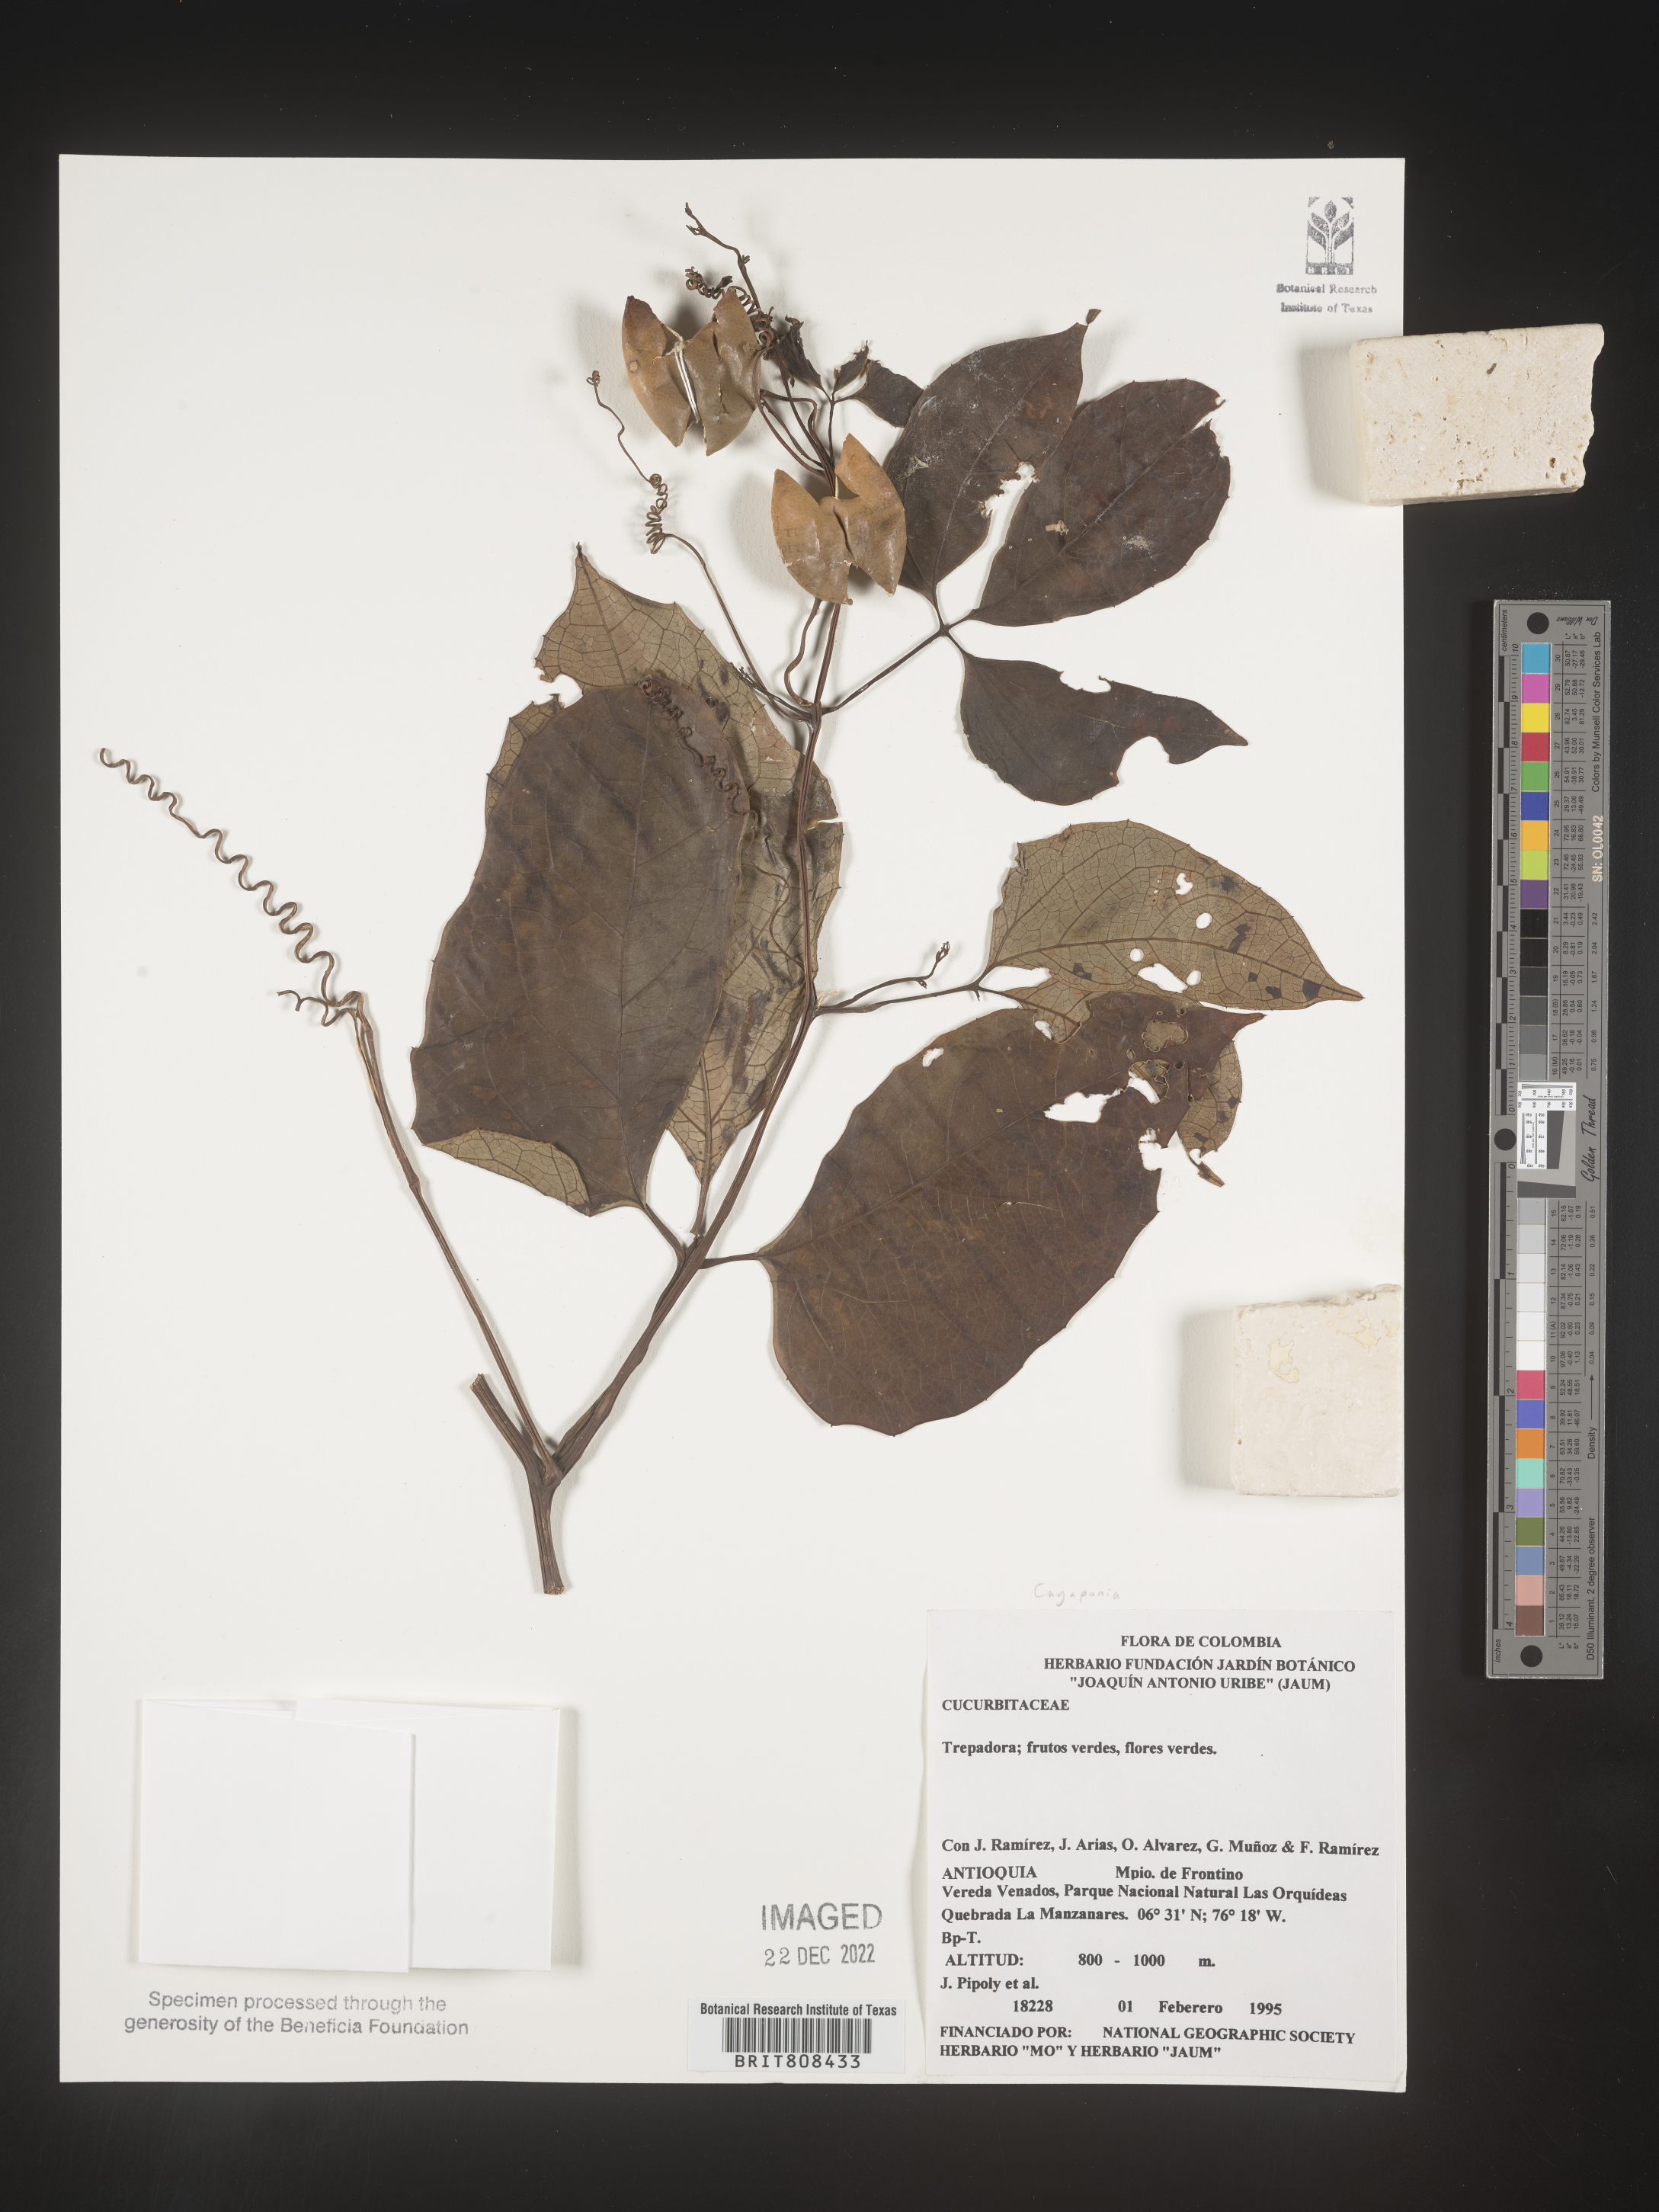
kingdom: Plantae
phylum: Tracheophyta
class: Magnoliopsida
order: Cucurbitales
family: Cucurbitaceae
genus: Cayaponia
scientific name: Cayaponia
